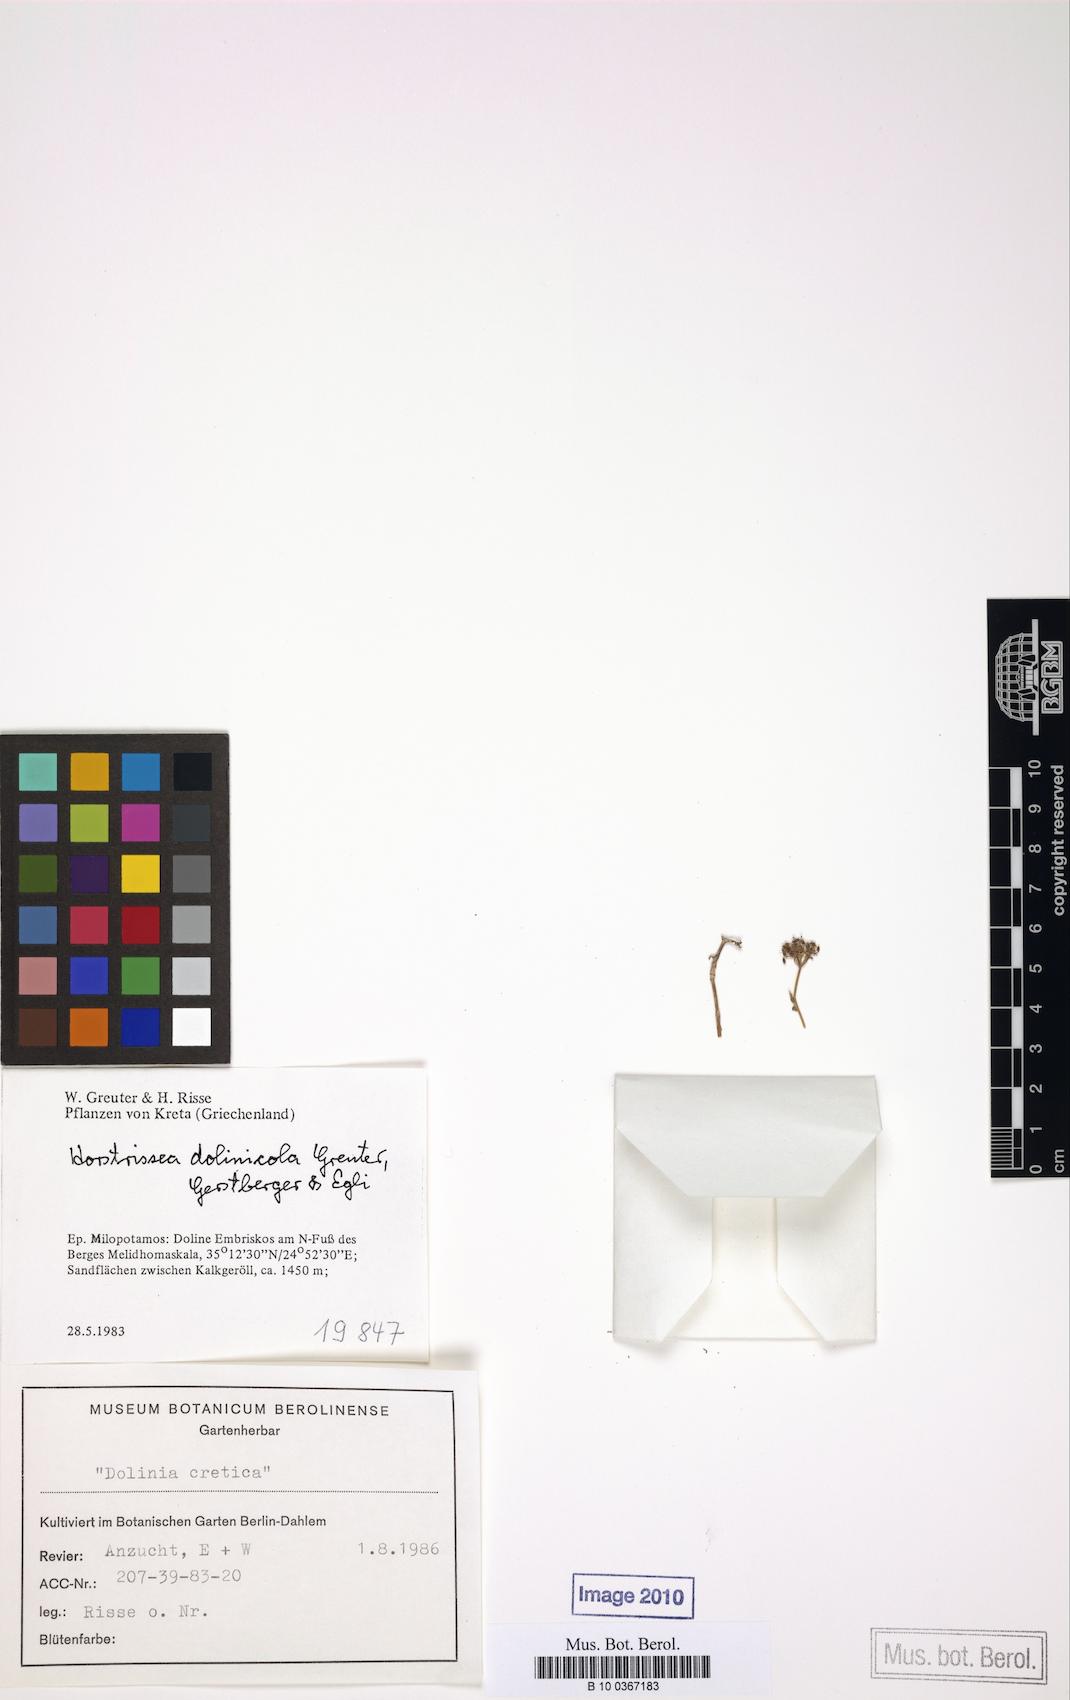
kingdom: Plantae
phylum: Tracheophyta
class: Magnoliopsida
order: Apiales
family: Apiaceae
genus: Horstrissea
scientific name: Horstrissea dolinicola
